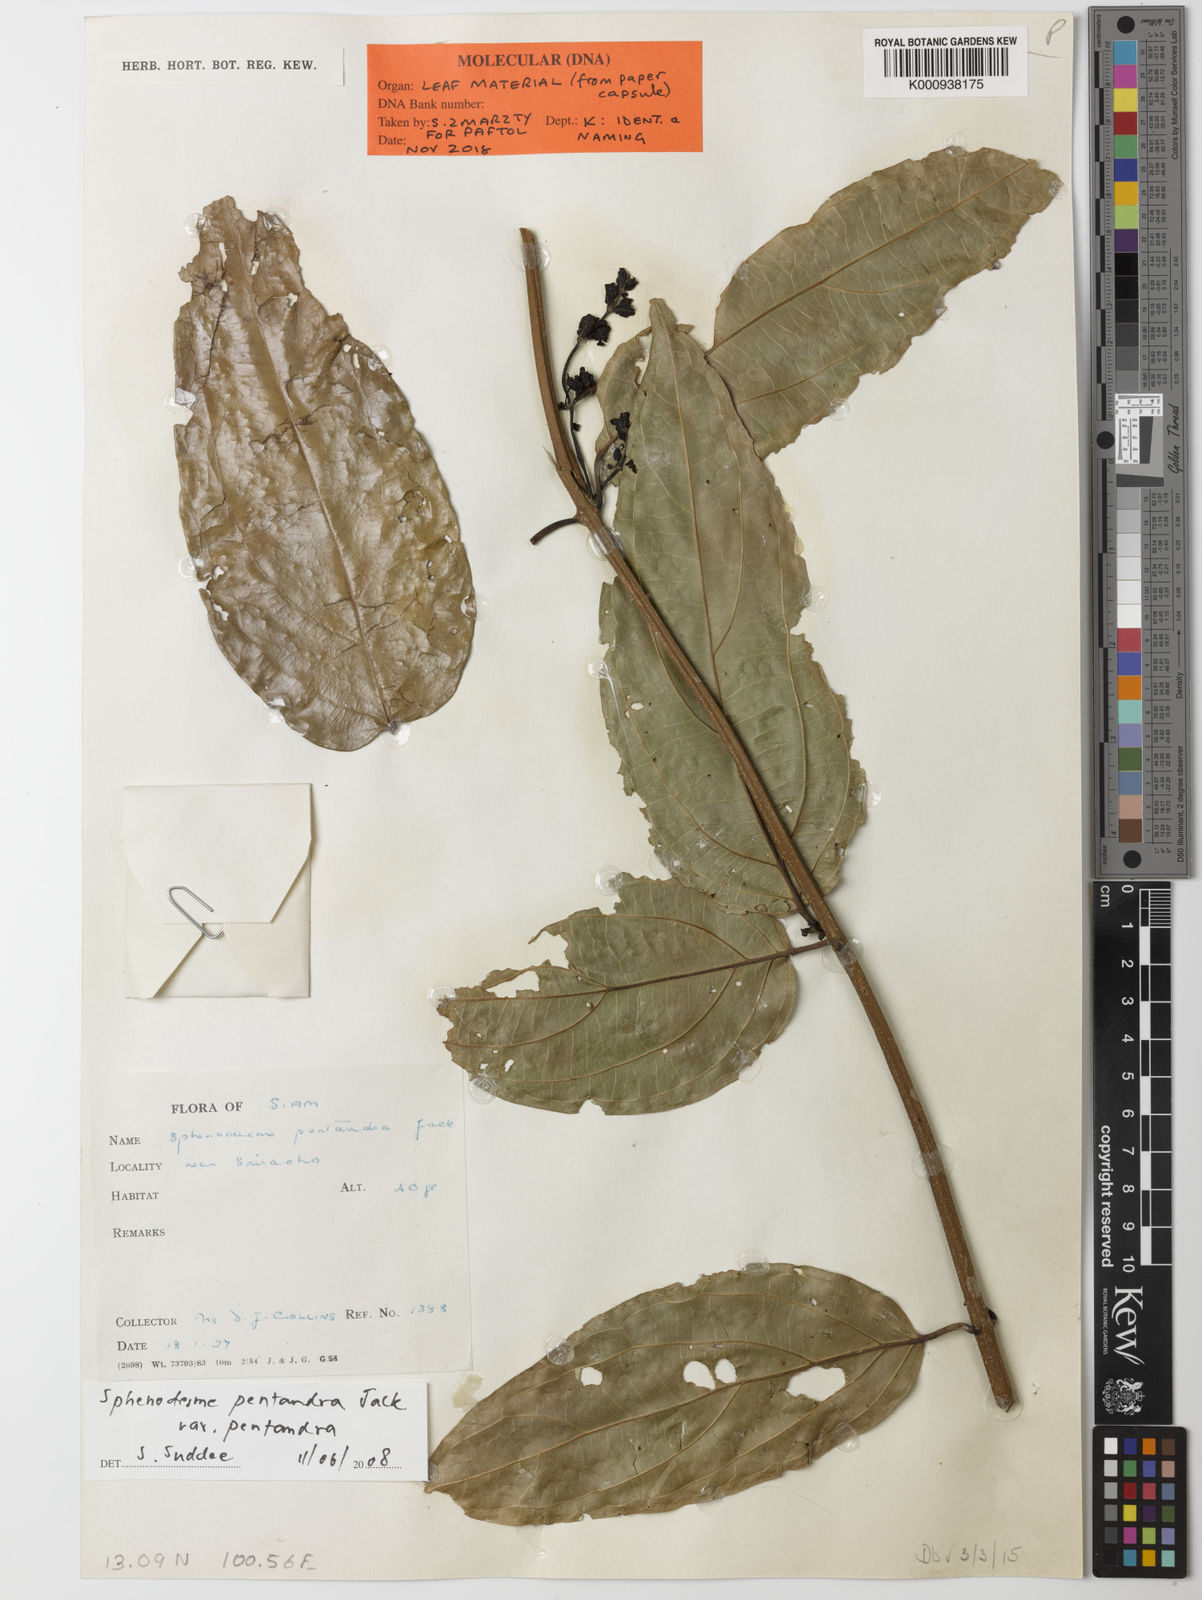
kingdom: Plantae
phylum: Tracheophyta
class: Magnoliopsida
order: Lamiales
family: Lamiaceae
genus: Sphenodesme
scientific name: Sphenodesme pentandra
